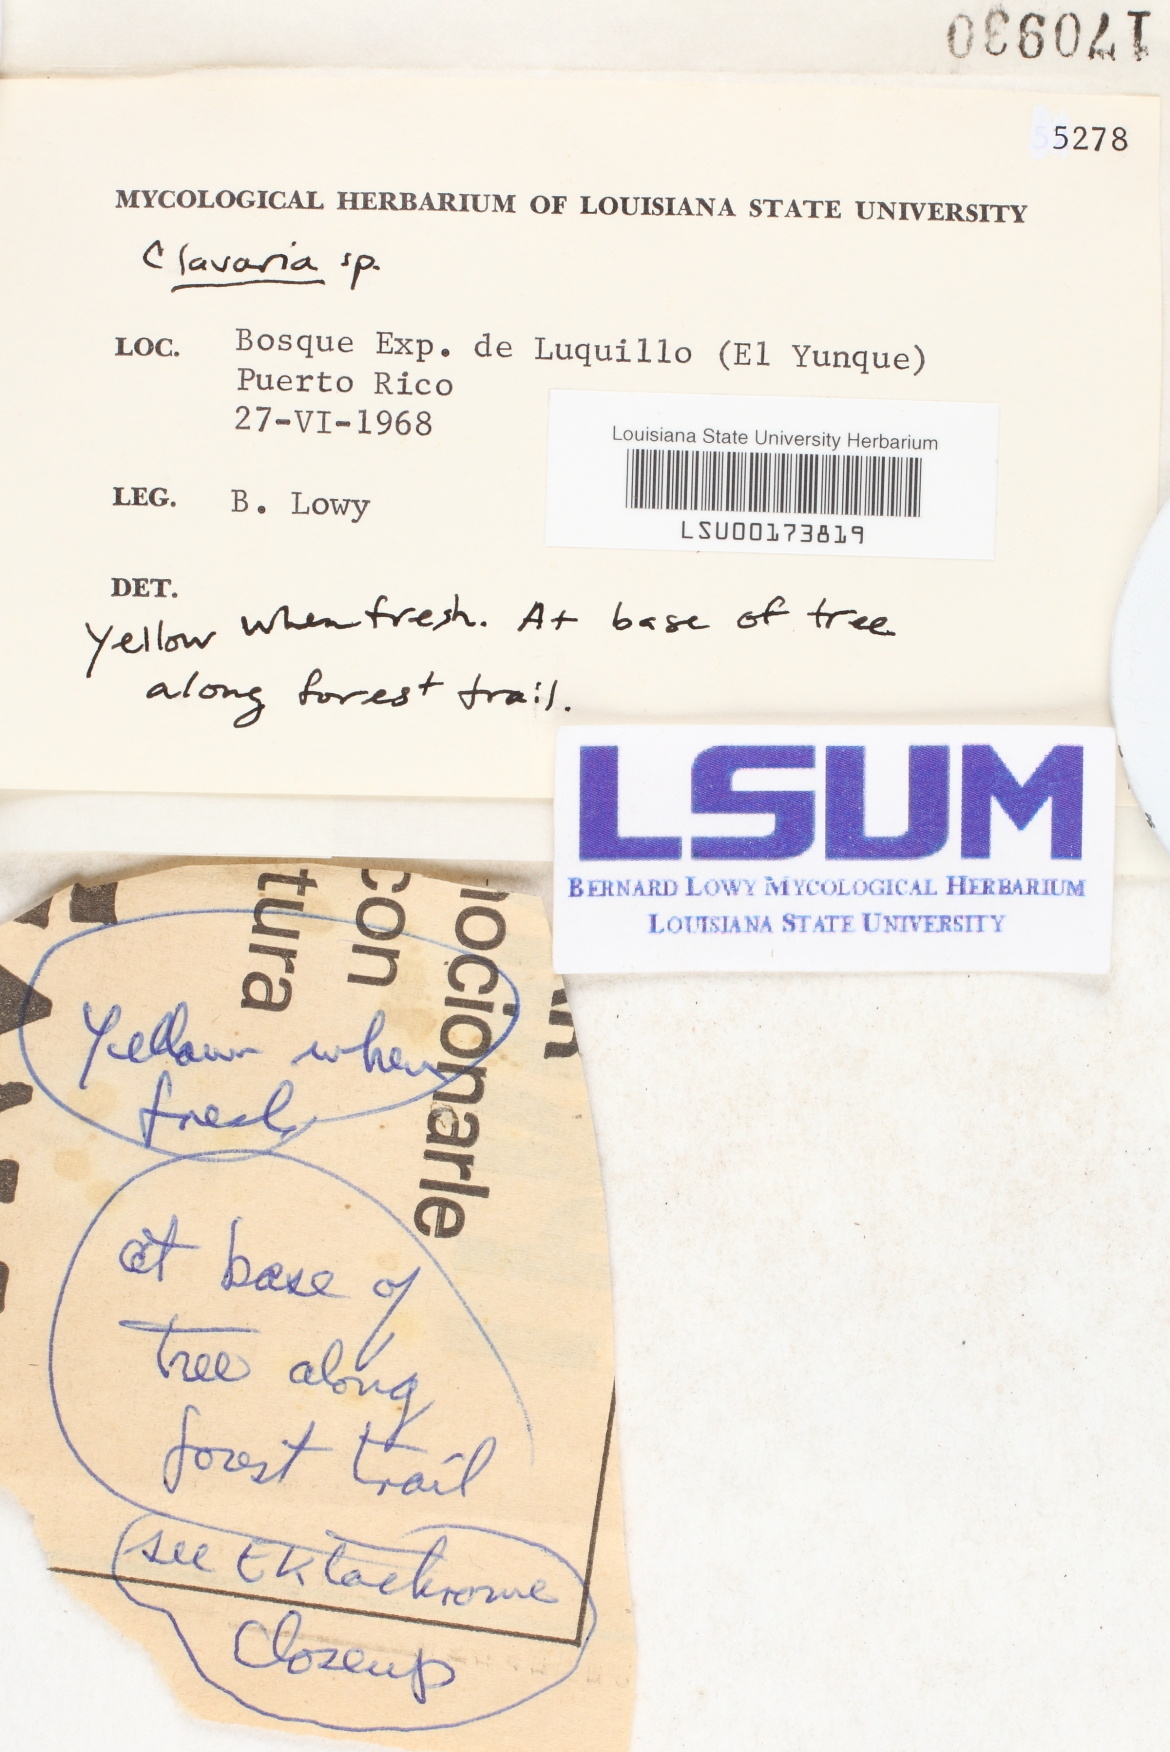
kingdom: Fungi
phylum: Basidiomycota
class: Agaricomycetes
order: Agaricales
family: Clavariaceae
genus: Clavaria
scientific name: Clavaria
